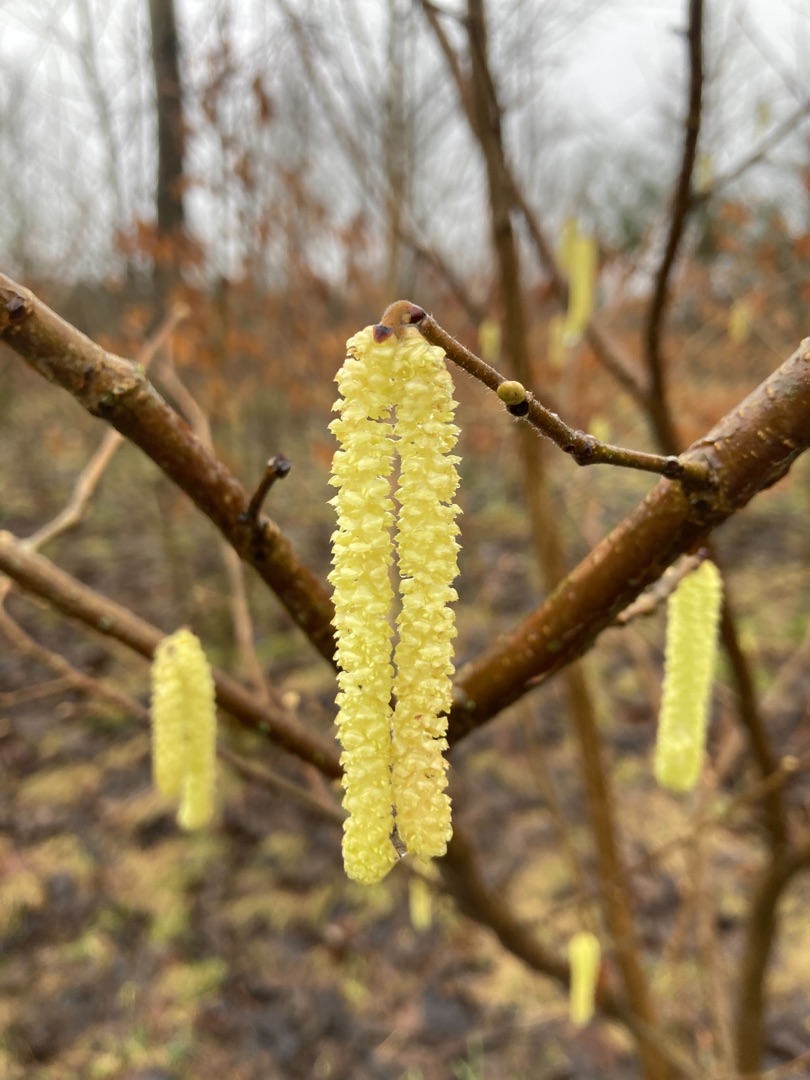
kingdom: Plantae
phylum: Tracheophyta
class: Magnoliopsida
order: Fagales
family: Betulaceae
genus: Corylus
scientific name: Corylus avellana
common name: Hassel
